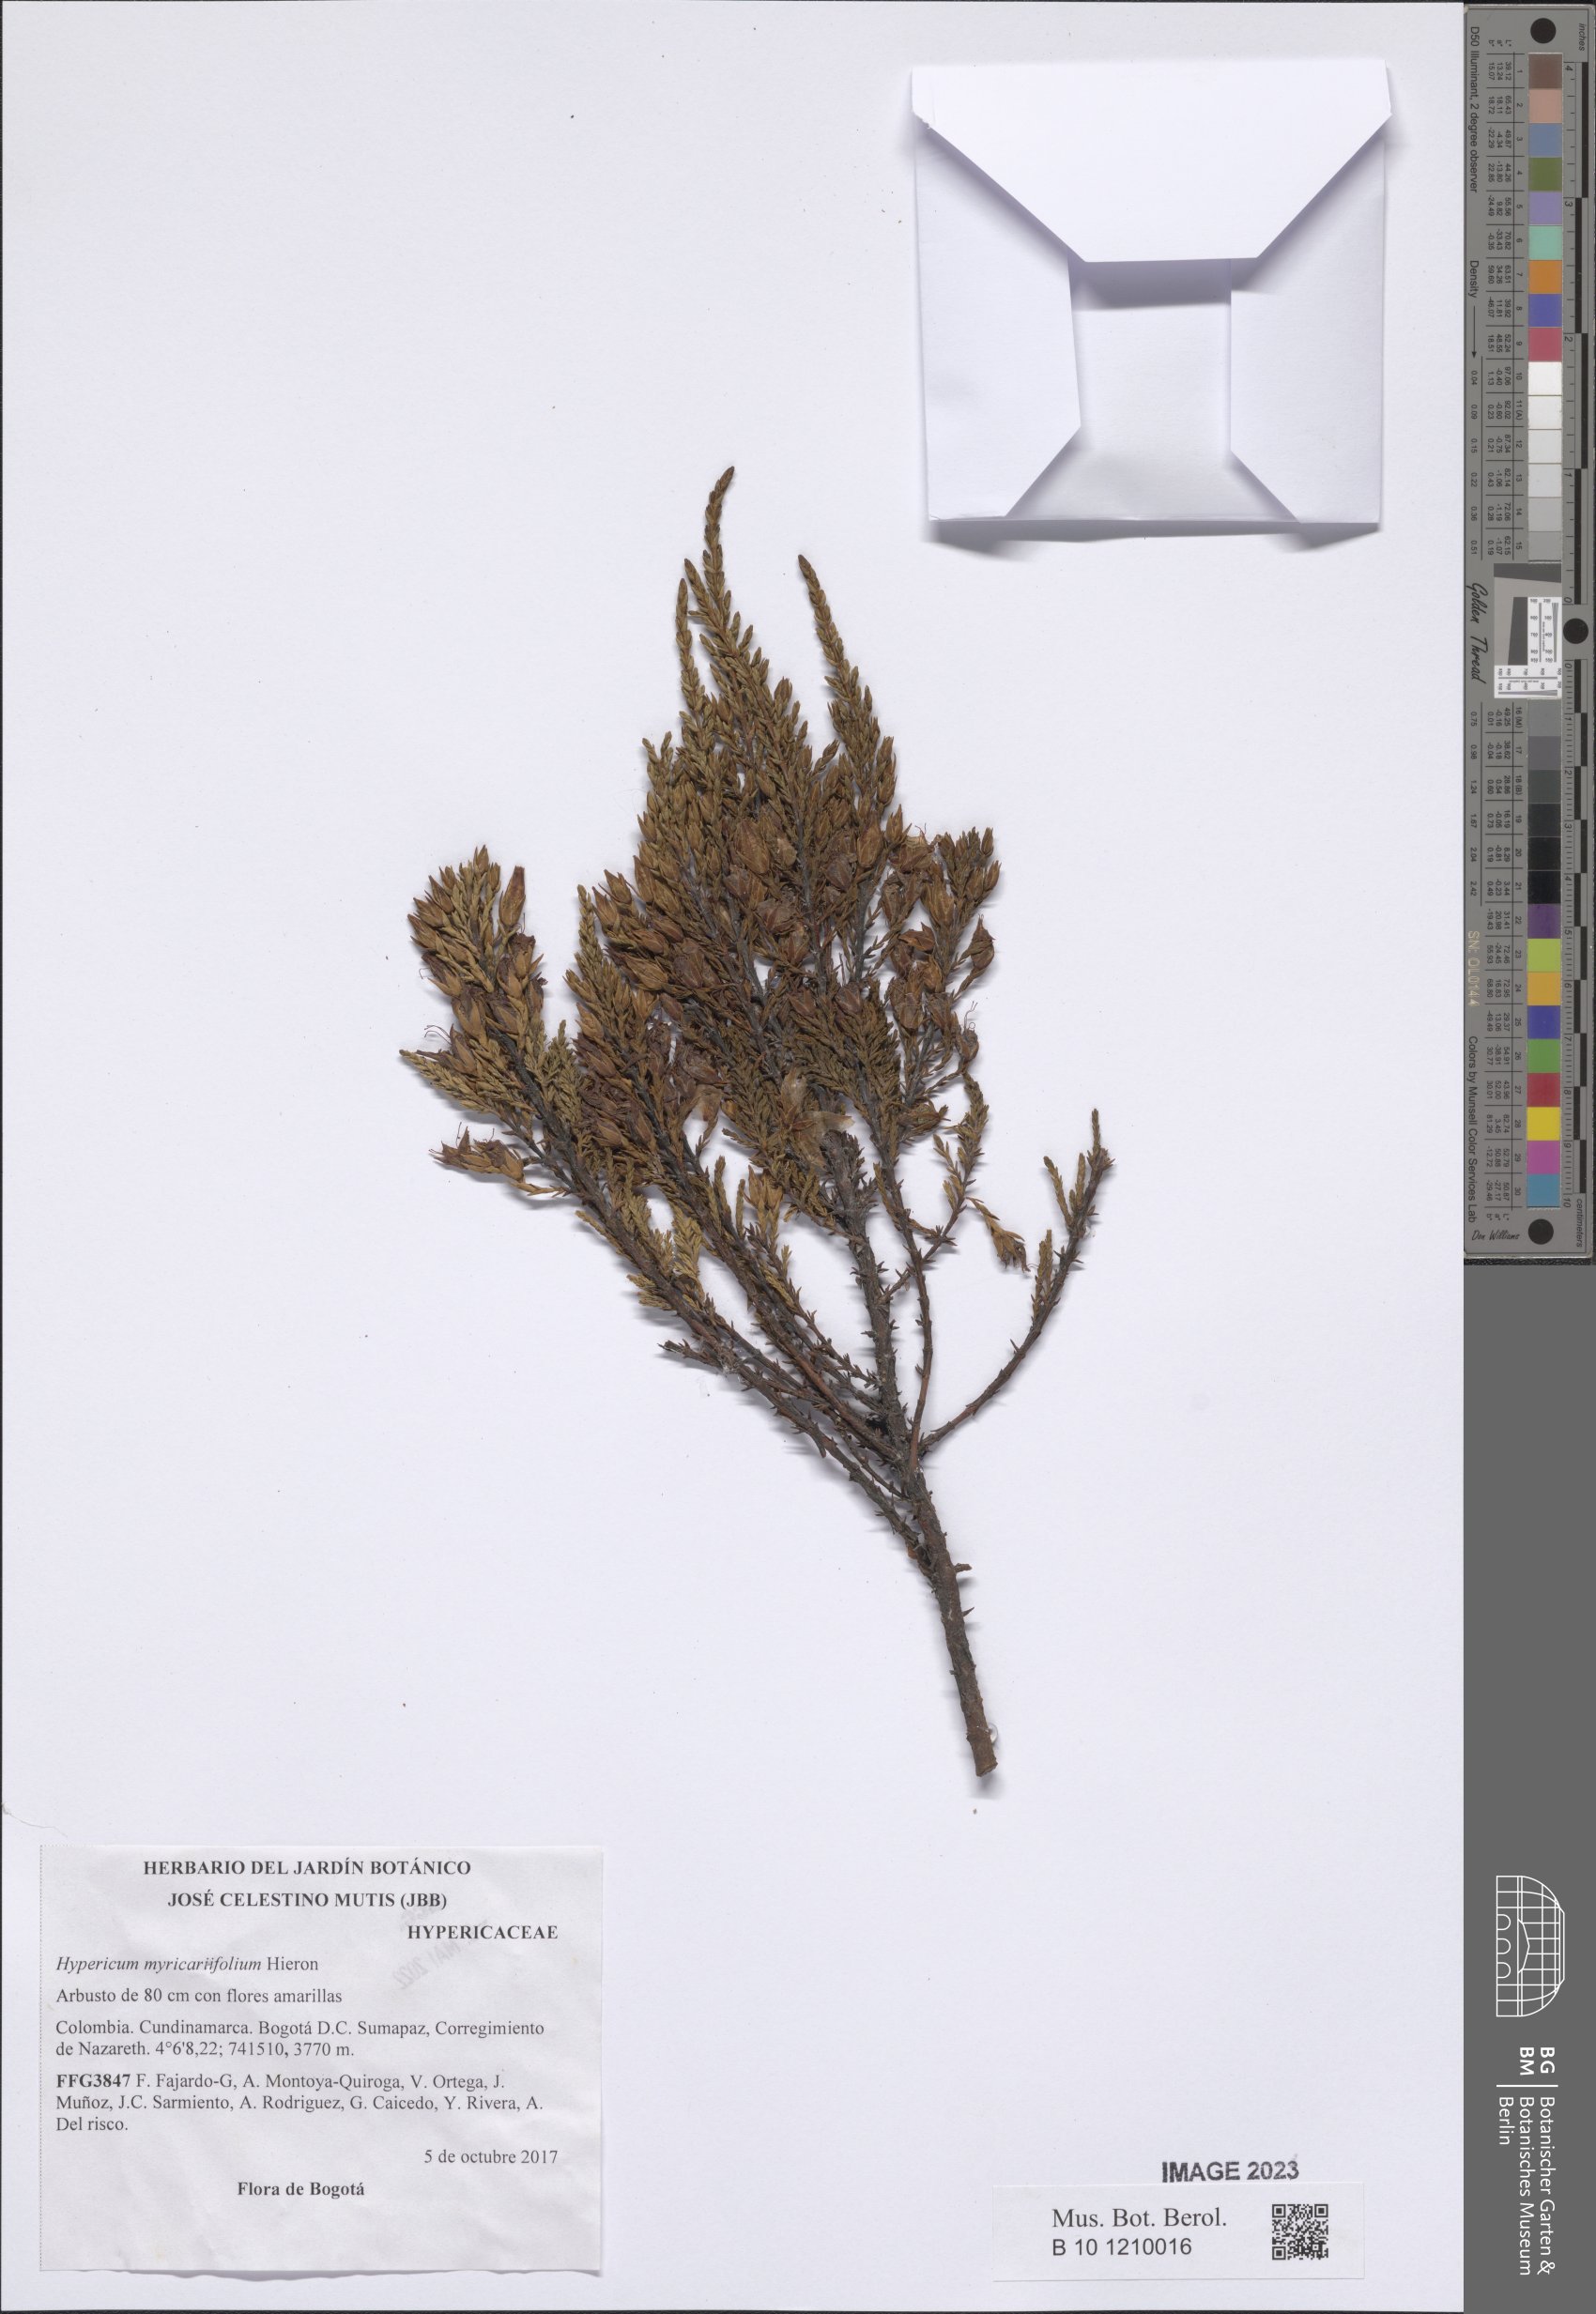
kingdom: Plantae
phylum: Tracheophyta
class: Magnoliopsida
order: Malpighiales
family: Hypericaceae
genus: Hypericum
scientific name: Hypericum myricariifolium
